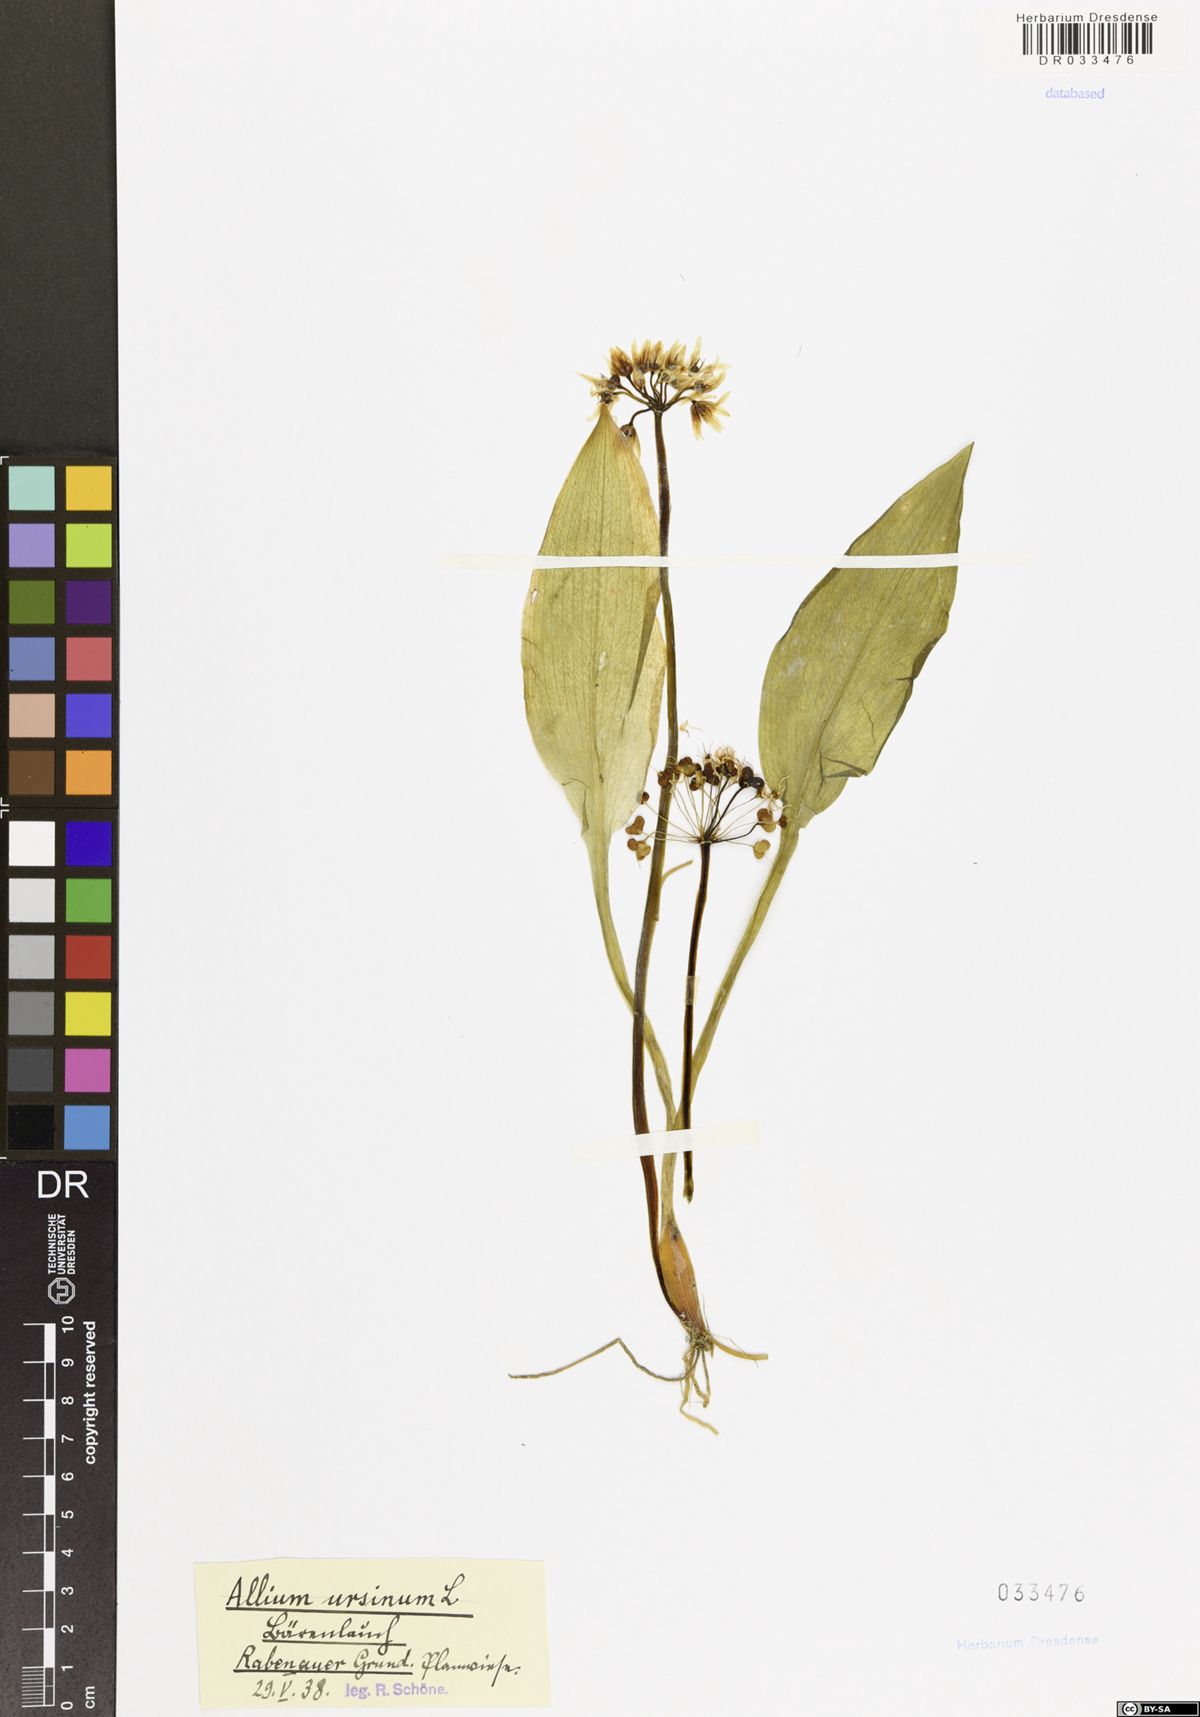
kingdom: Plantae
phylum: Tracheophyta
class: Liliopsida
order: Asparagales
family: Amaryllidaceae
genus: Allium
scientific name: Allium ursinum
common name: Ramsons
